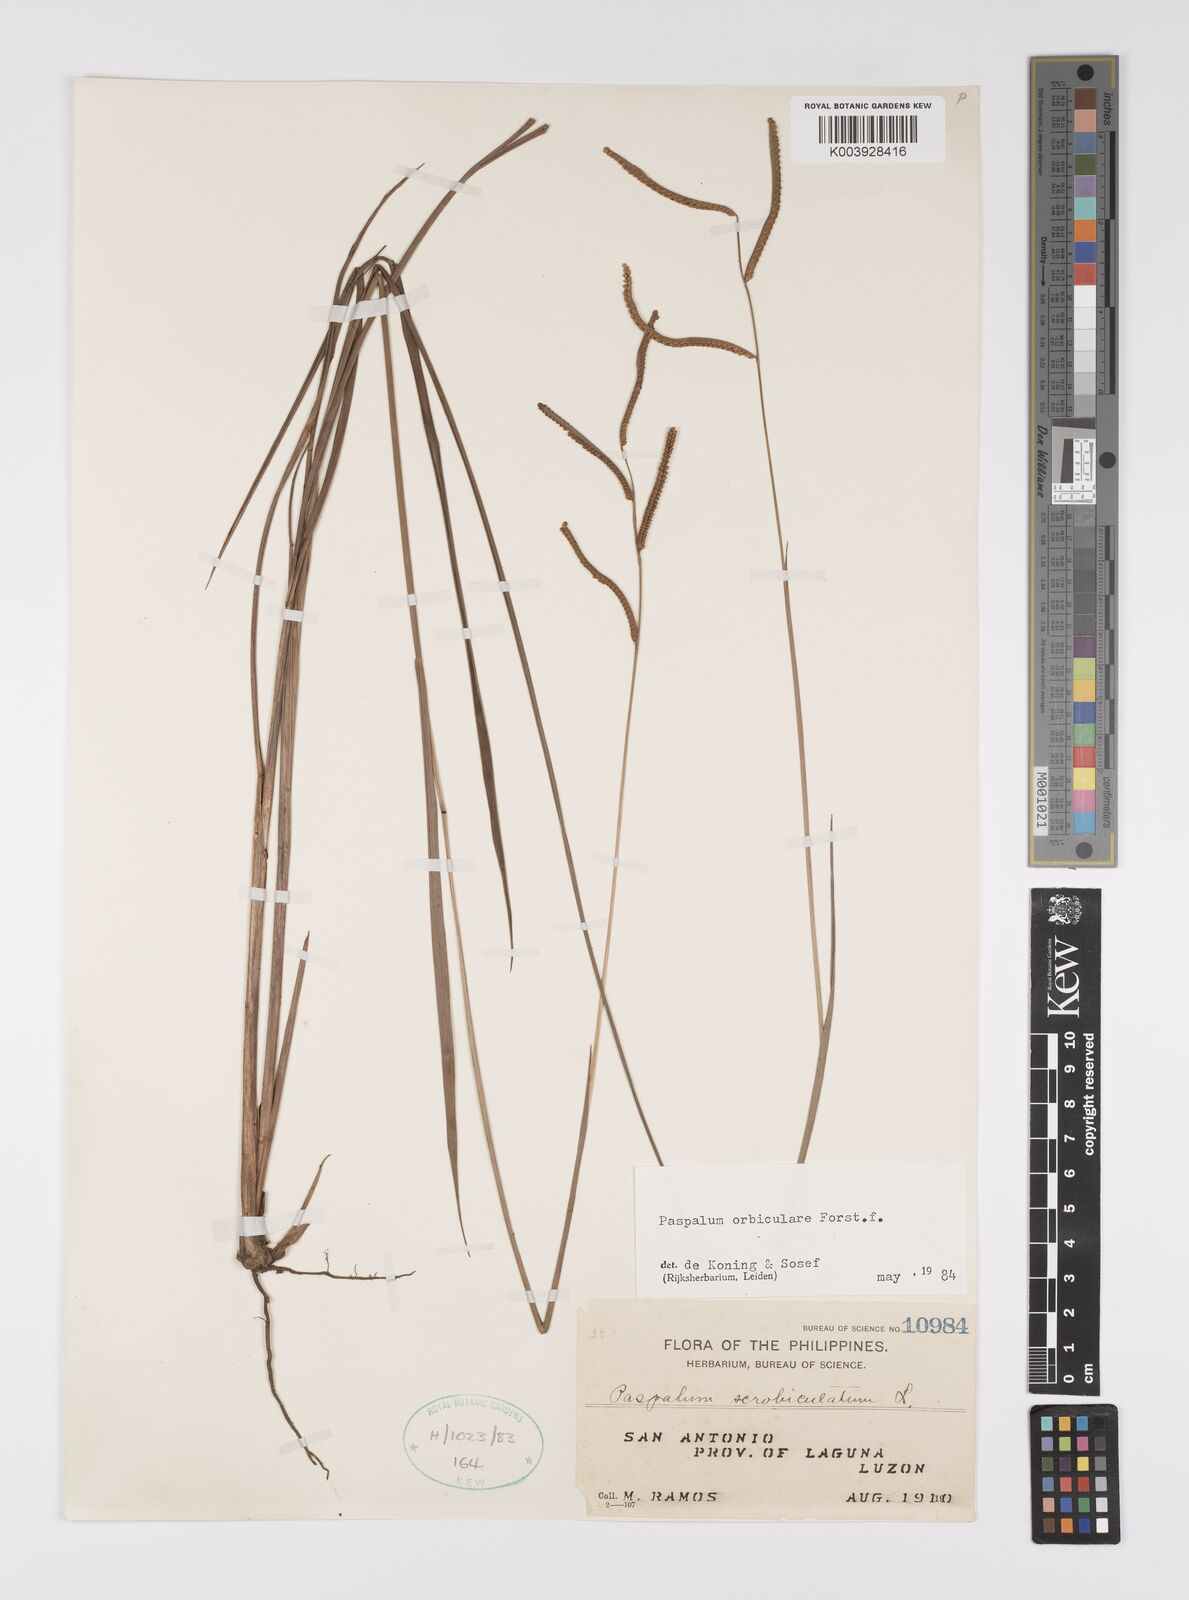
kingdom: Plantae
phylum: Tracheophyta
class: Liliopsida
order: Poales
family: Poaceae
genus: Paspalum
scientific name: Paspalum scrobiculatum
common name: Kodo millet
